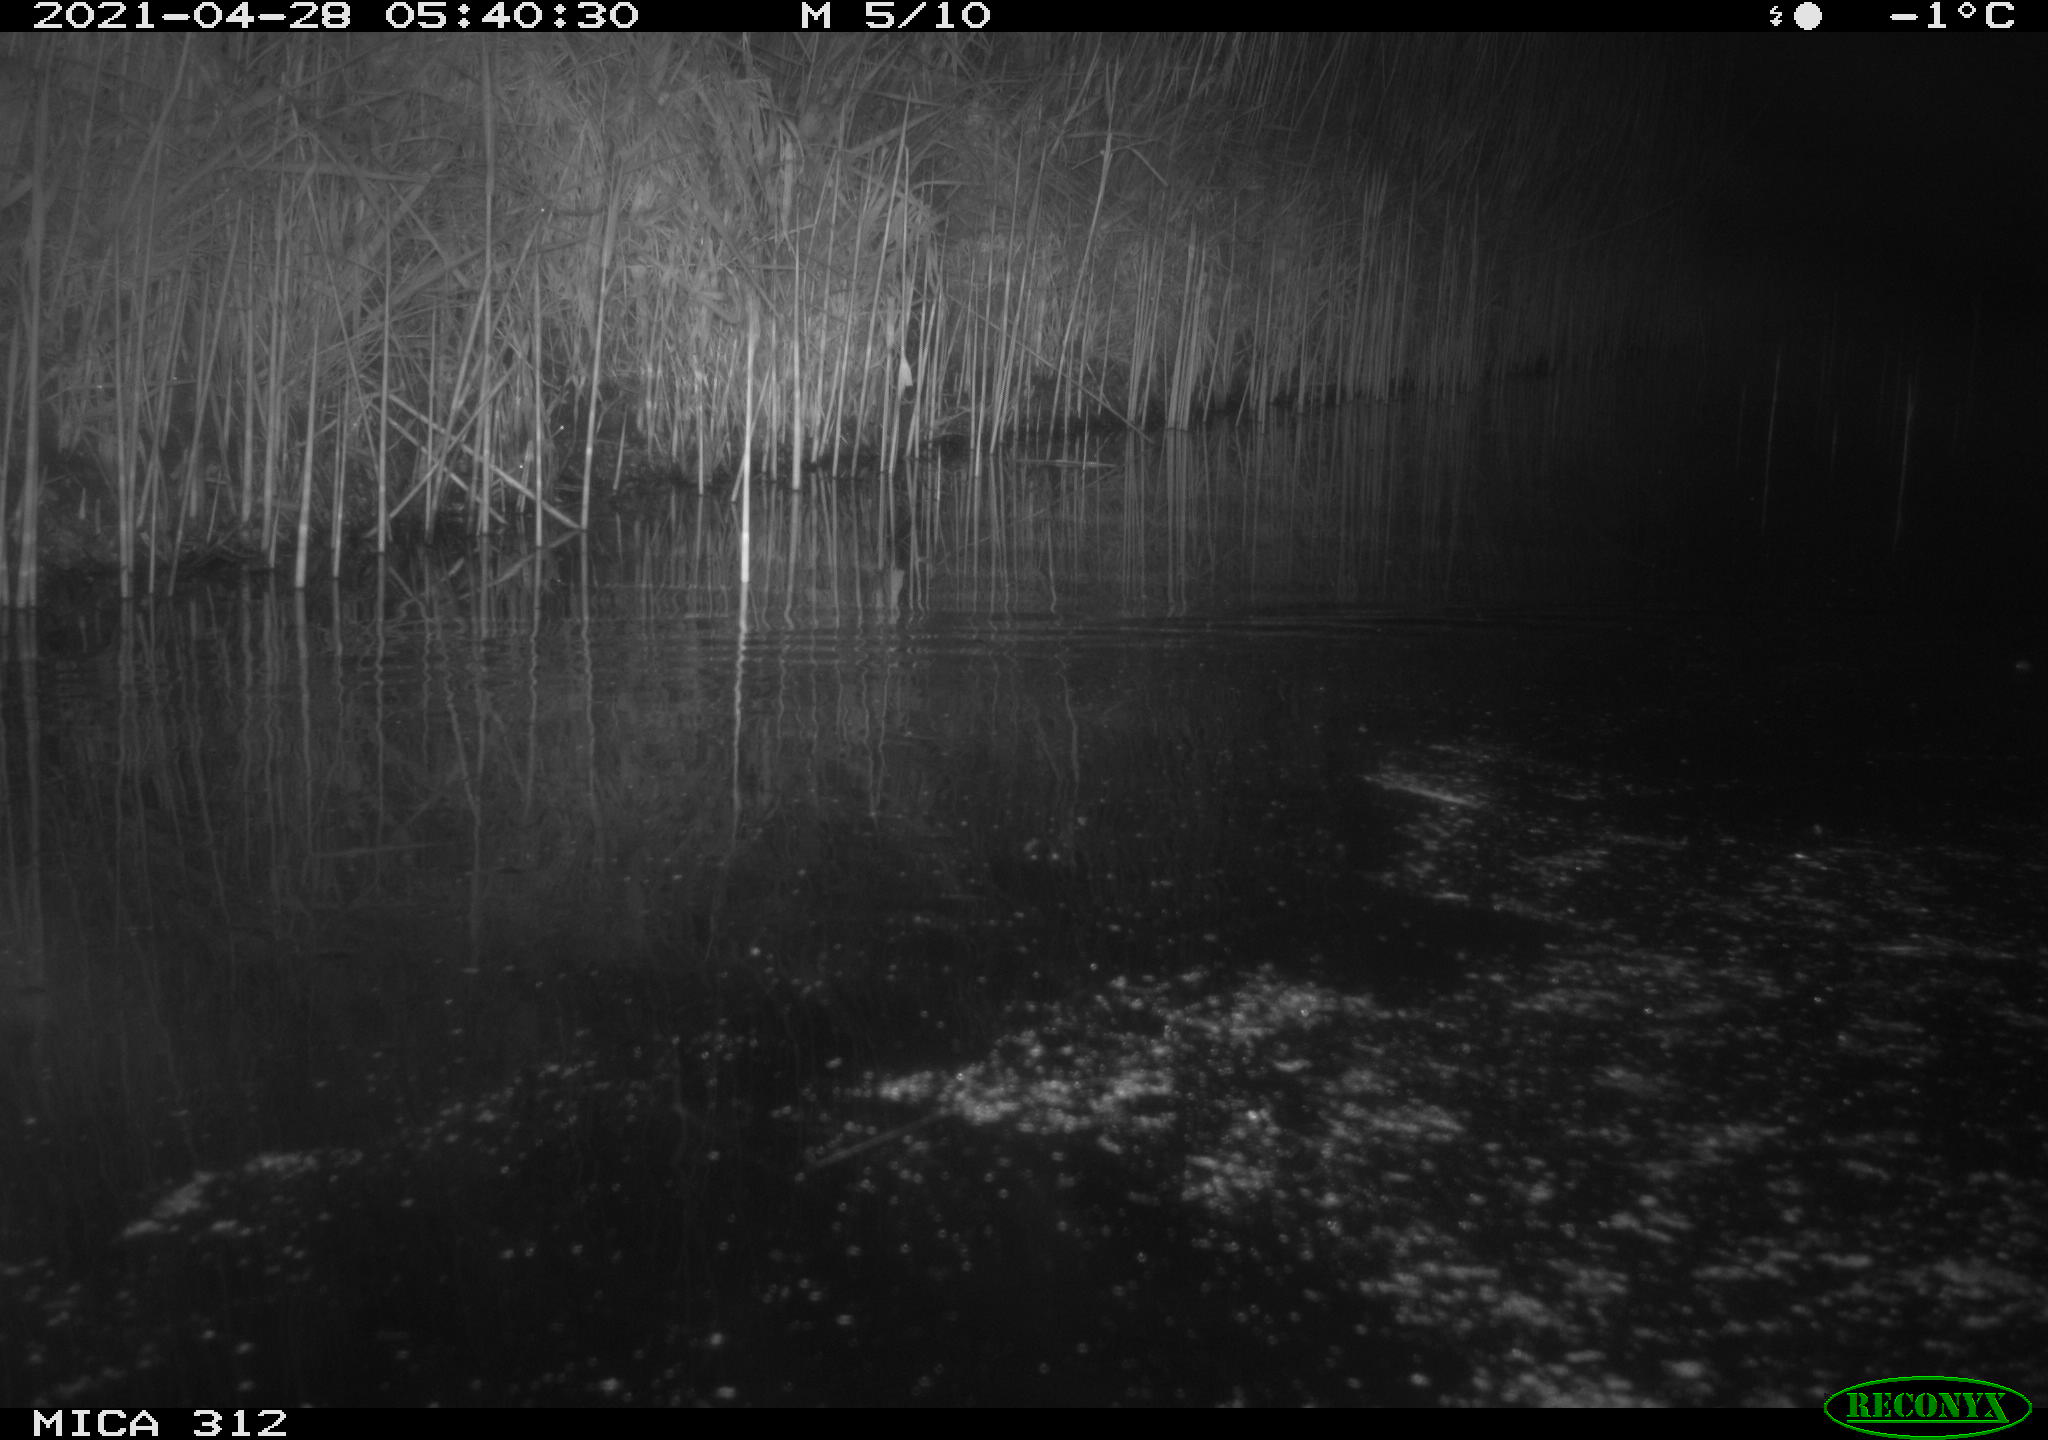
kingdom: Animalia
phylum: Chordata
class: Mammalia
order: Rodentia
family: Cricetidae
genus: Ondatra
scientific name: Ondatra zibethicus
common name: Muskrat
